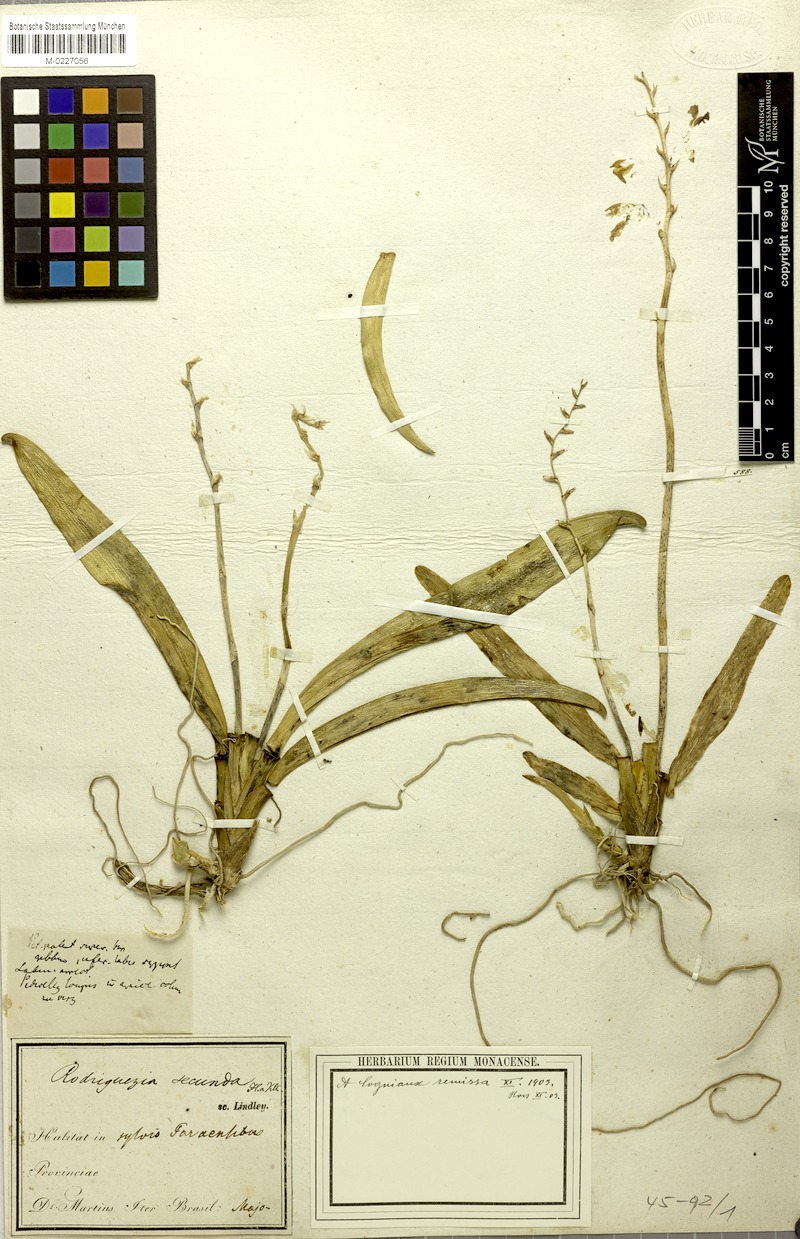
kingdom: Plantae
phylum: Tracheophyta
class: Liliopsida
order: Asparagales
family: Orchidaceae
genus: Rodriguezia
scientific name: Rodriguezia lanceolata
